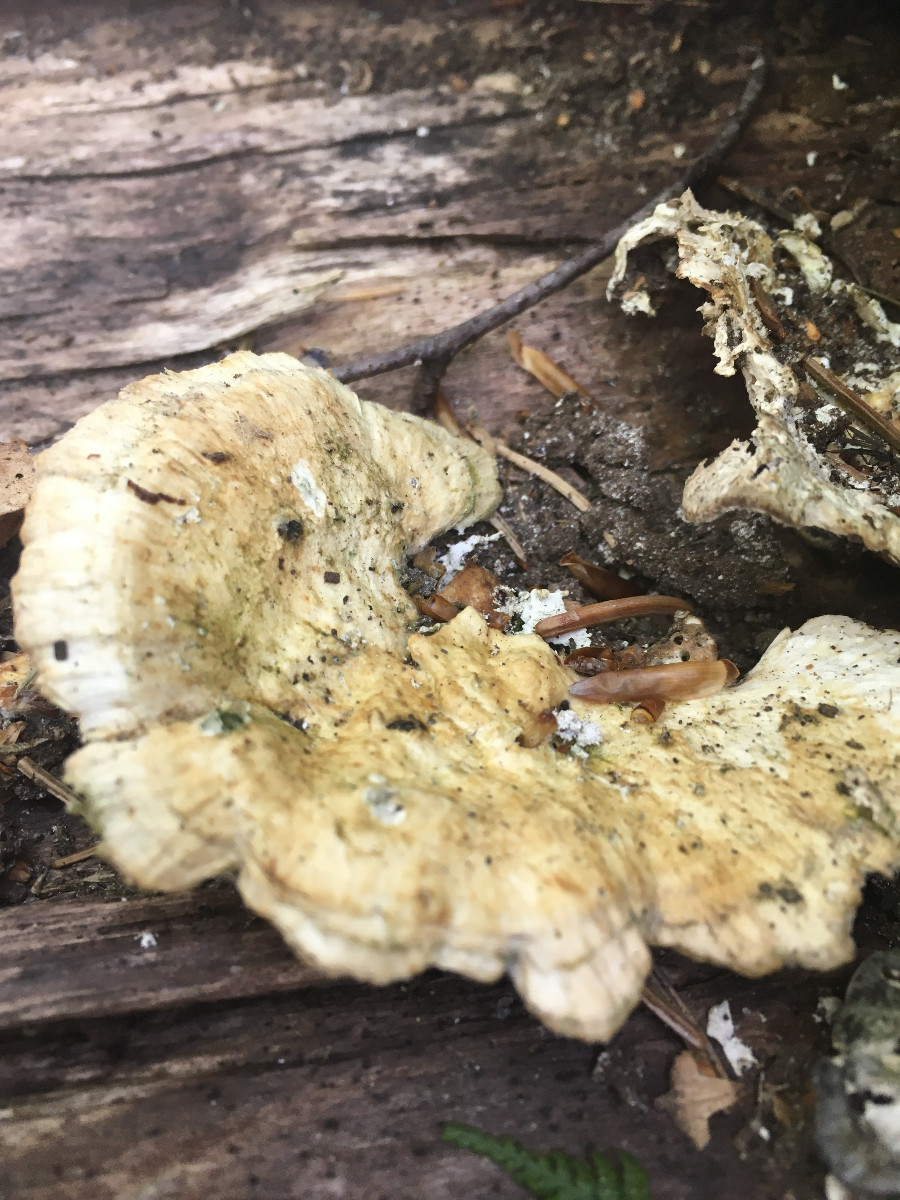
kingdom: Fungi
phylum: Basidiomycota
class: Agaricomycetes
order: Polyporales
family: Polyporaceae
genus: Trametes
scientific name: Trametes
